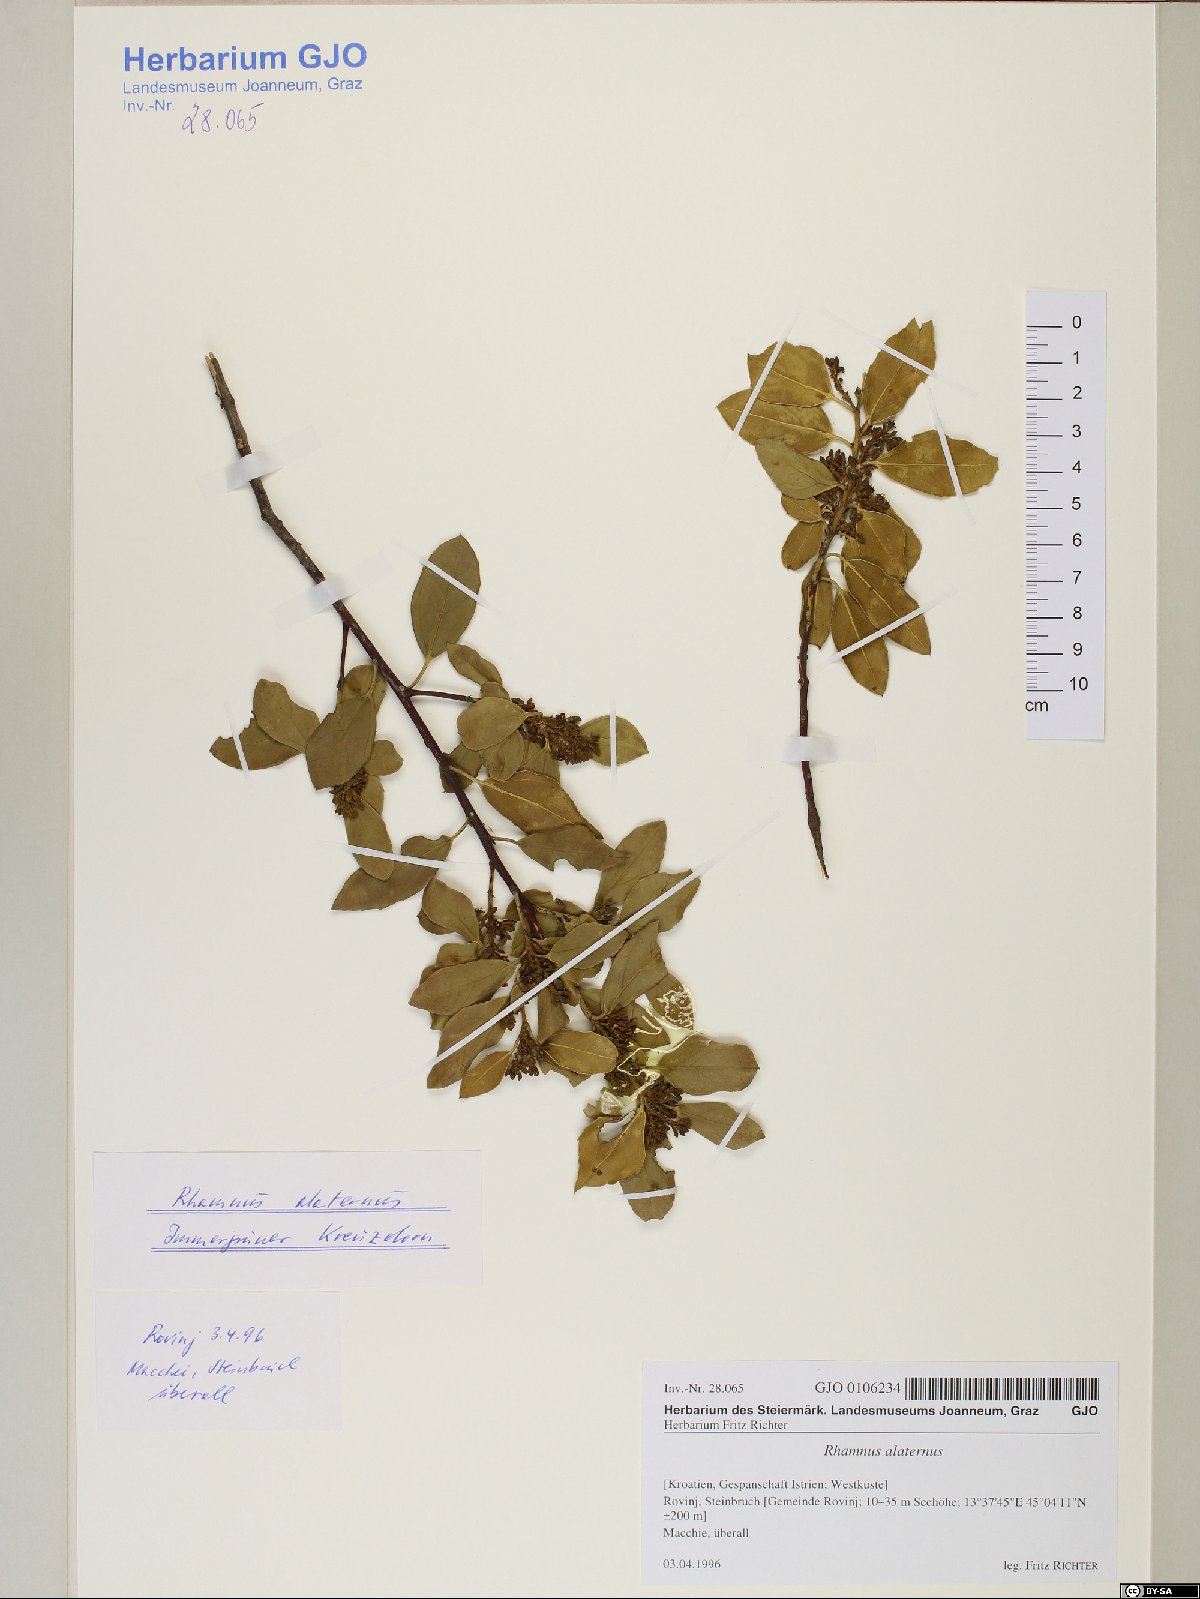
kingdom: Plantae
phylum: Tracheophyta
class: Magnoliopsida
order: Rosales
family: Rhamnaceae
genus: Rhamnus
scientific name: Rhamnus alaternus
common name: Mediterranean buckthorn
